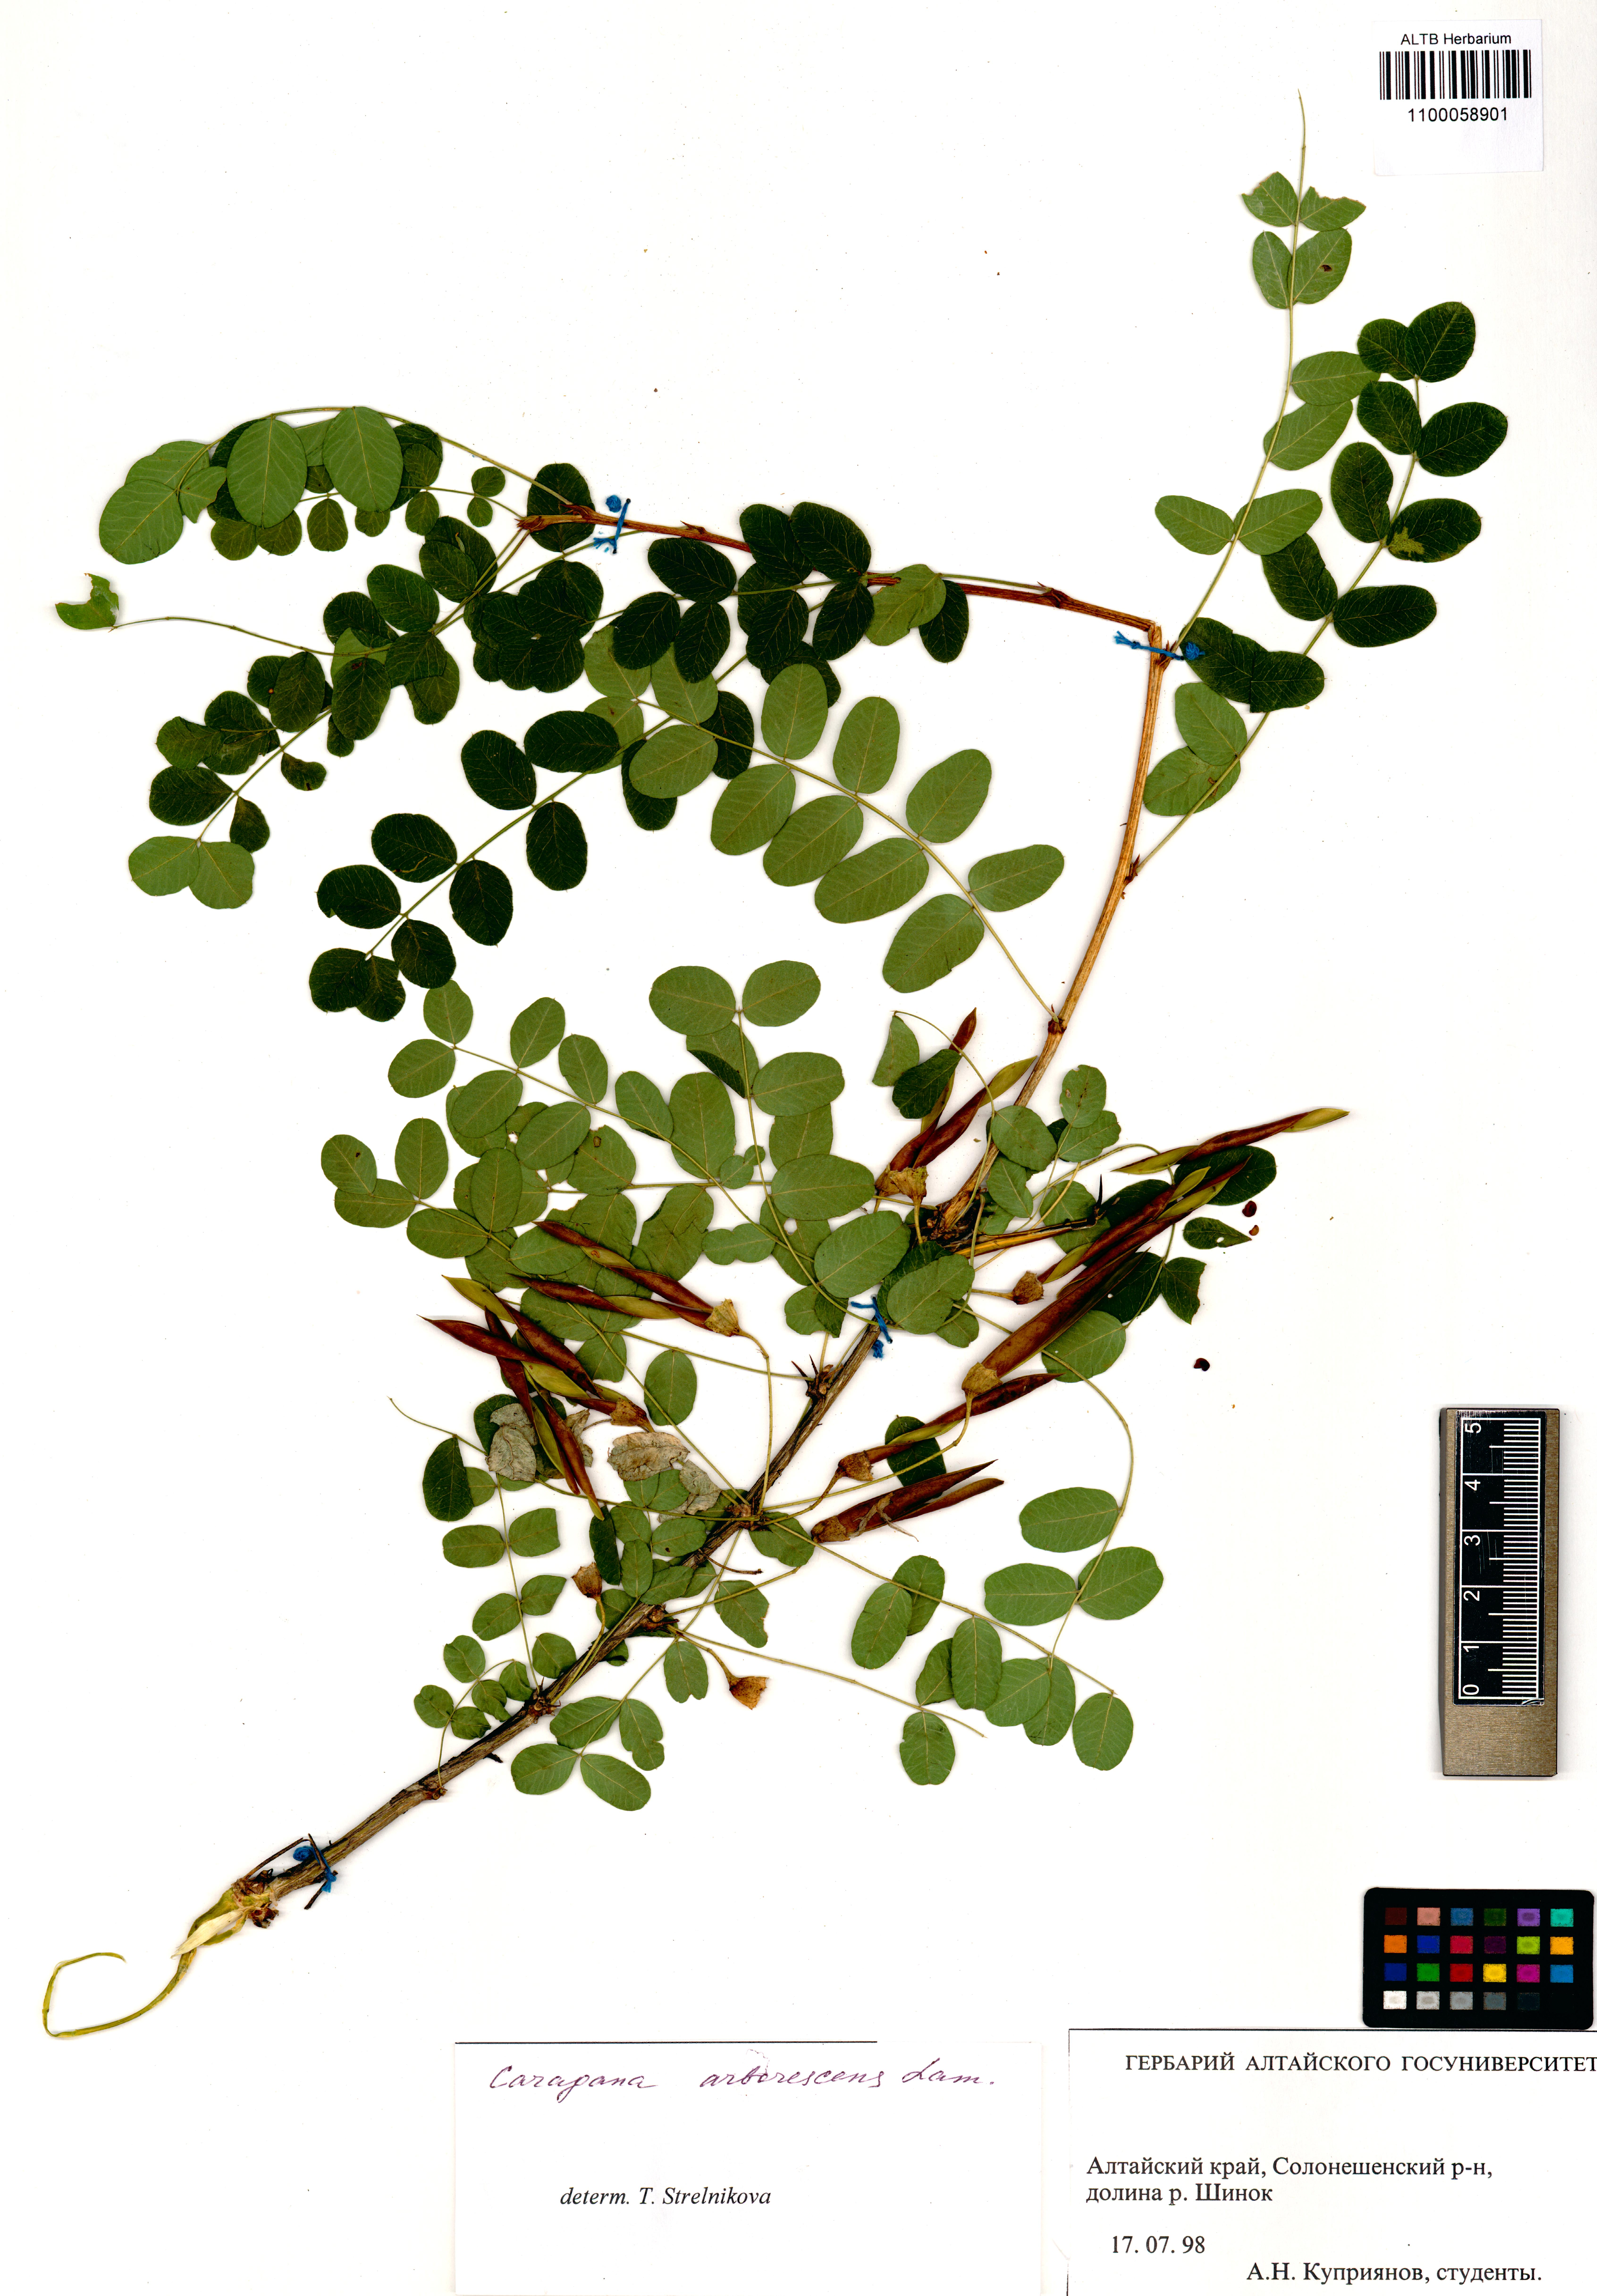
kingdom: Plantae
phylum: Tracheophyta
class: Magnoliopsida
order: Fabales
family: Fabaceae
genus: Caragana
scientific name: Caragana arborescens
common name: Siberian peashrub
